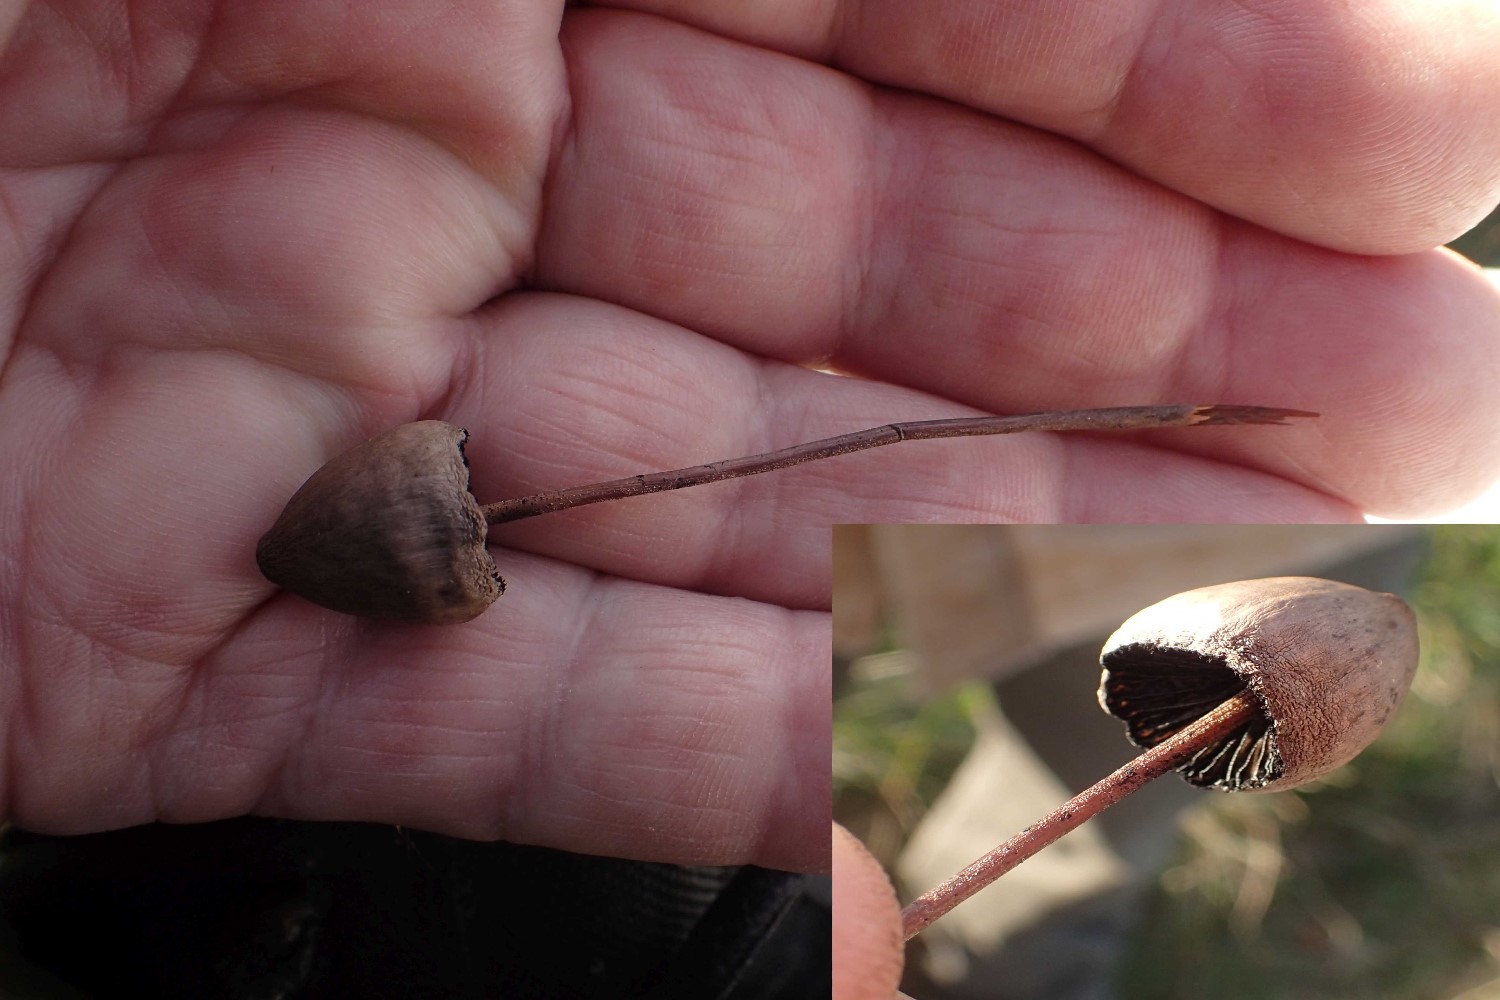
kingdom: Fungi
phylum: Basidiomycota
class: Agaricomycetes
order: Agaricales
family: Bolbitiaceae
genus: Panaeolus
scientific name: Panaeolus
